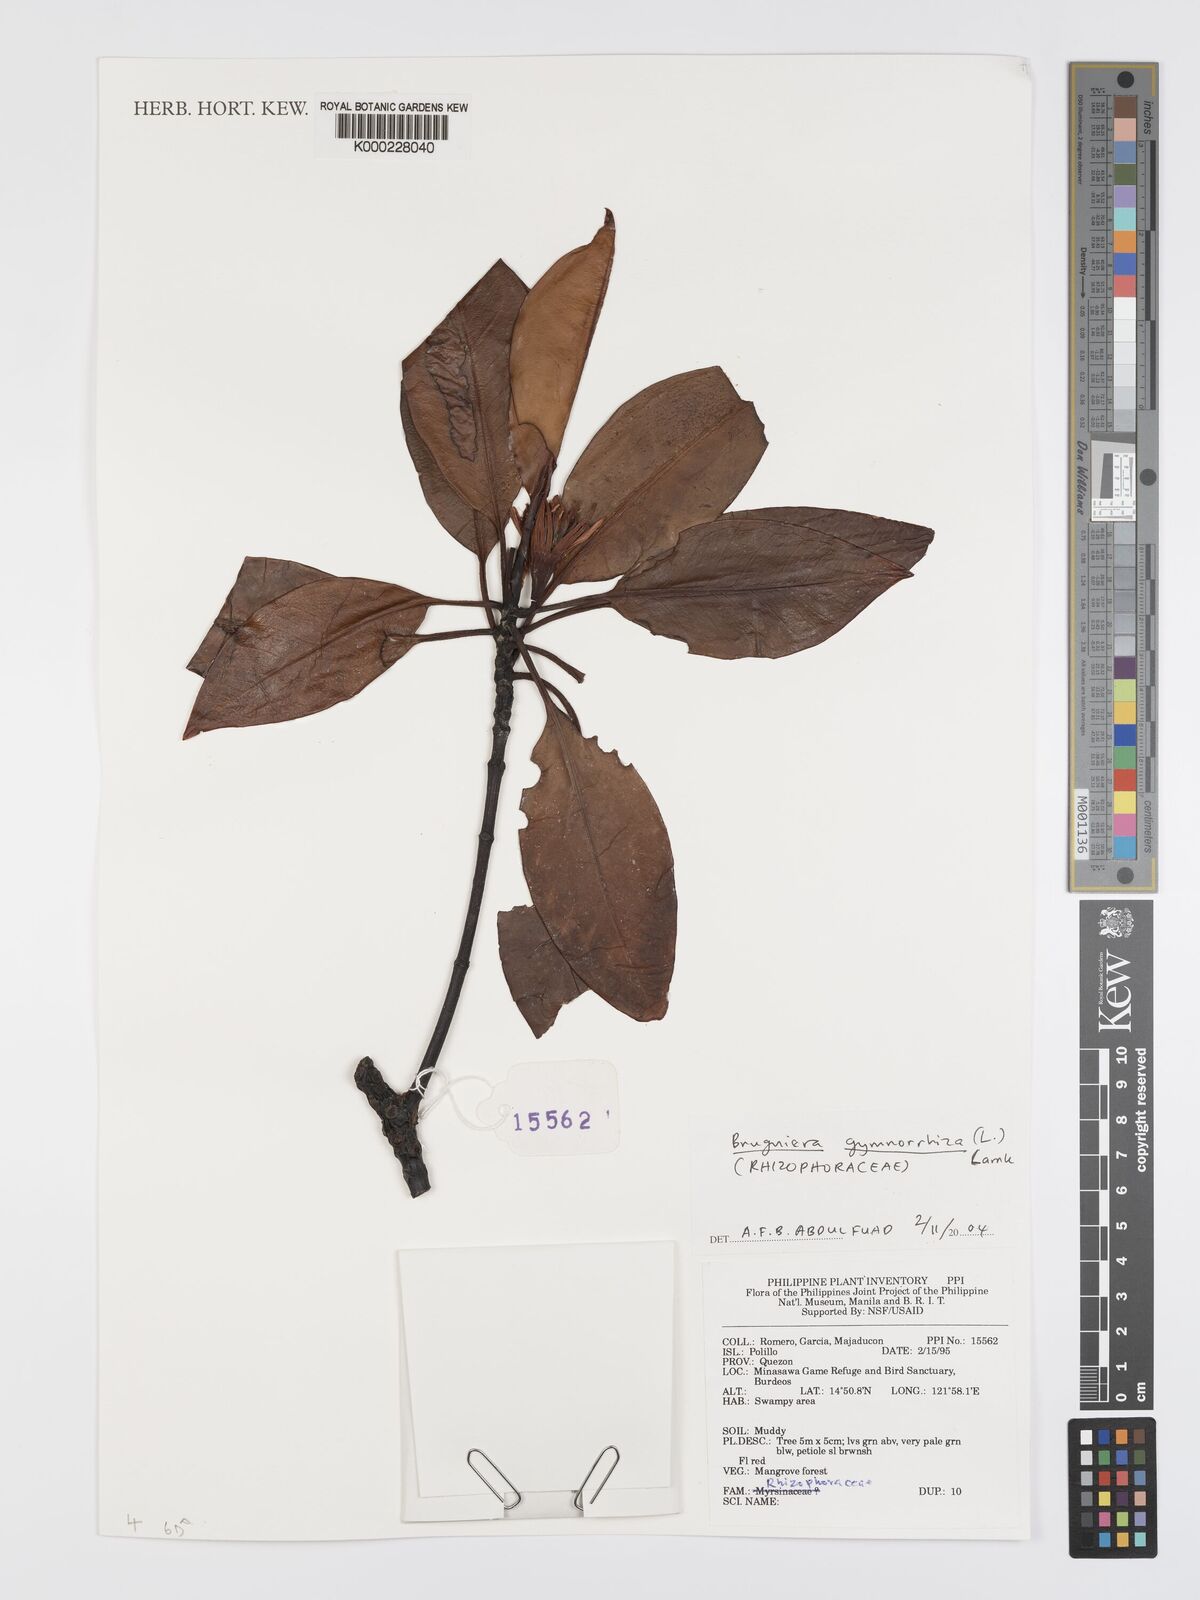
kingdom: Plantae
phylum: Tracheophyta
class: Magnoliopsida
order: Malpighiales
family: Rhizophoraceae
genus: Bruguiera
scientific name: Bruguiera gymnorhiza
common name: Oriental mangrove
